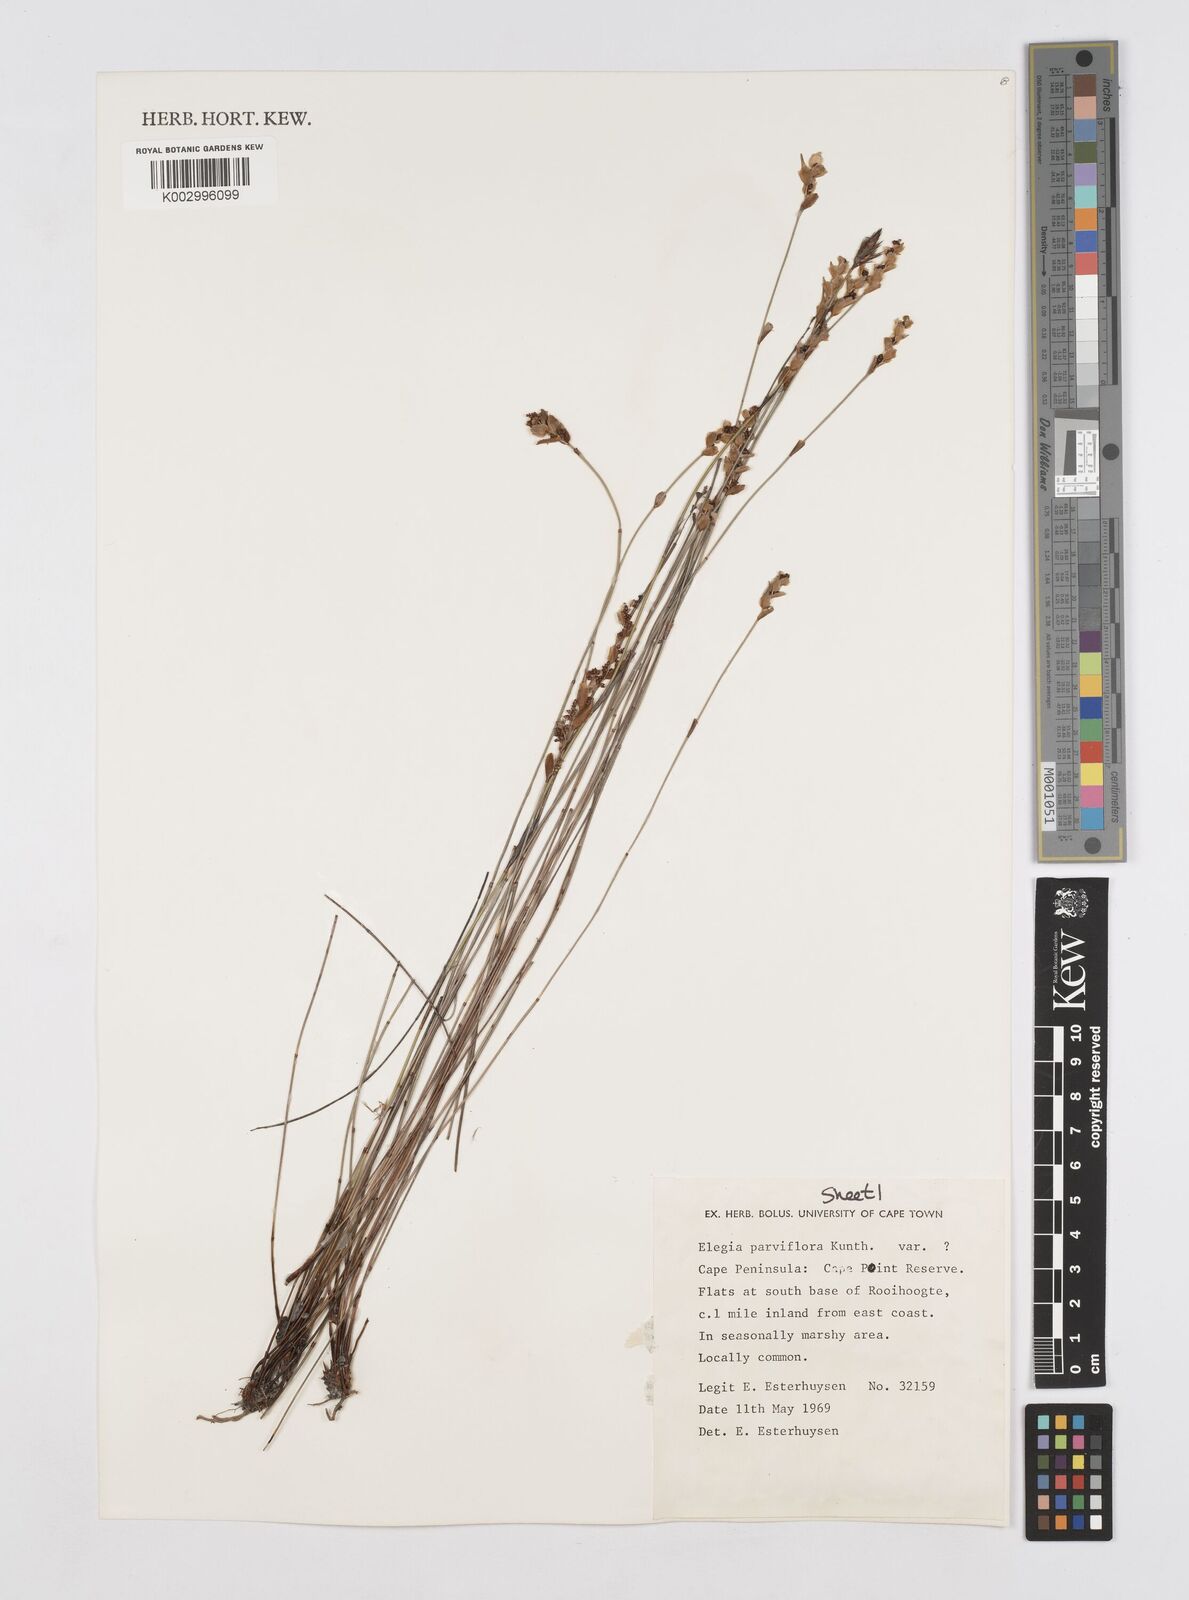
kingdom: Plantae
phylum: Tracheophyta
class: Liliopsida
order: Poales
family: Restionaceae
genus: Cannomois
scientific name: Cannomois parviflora
